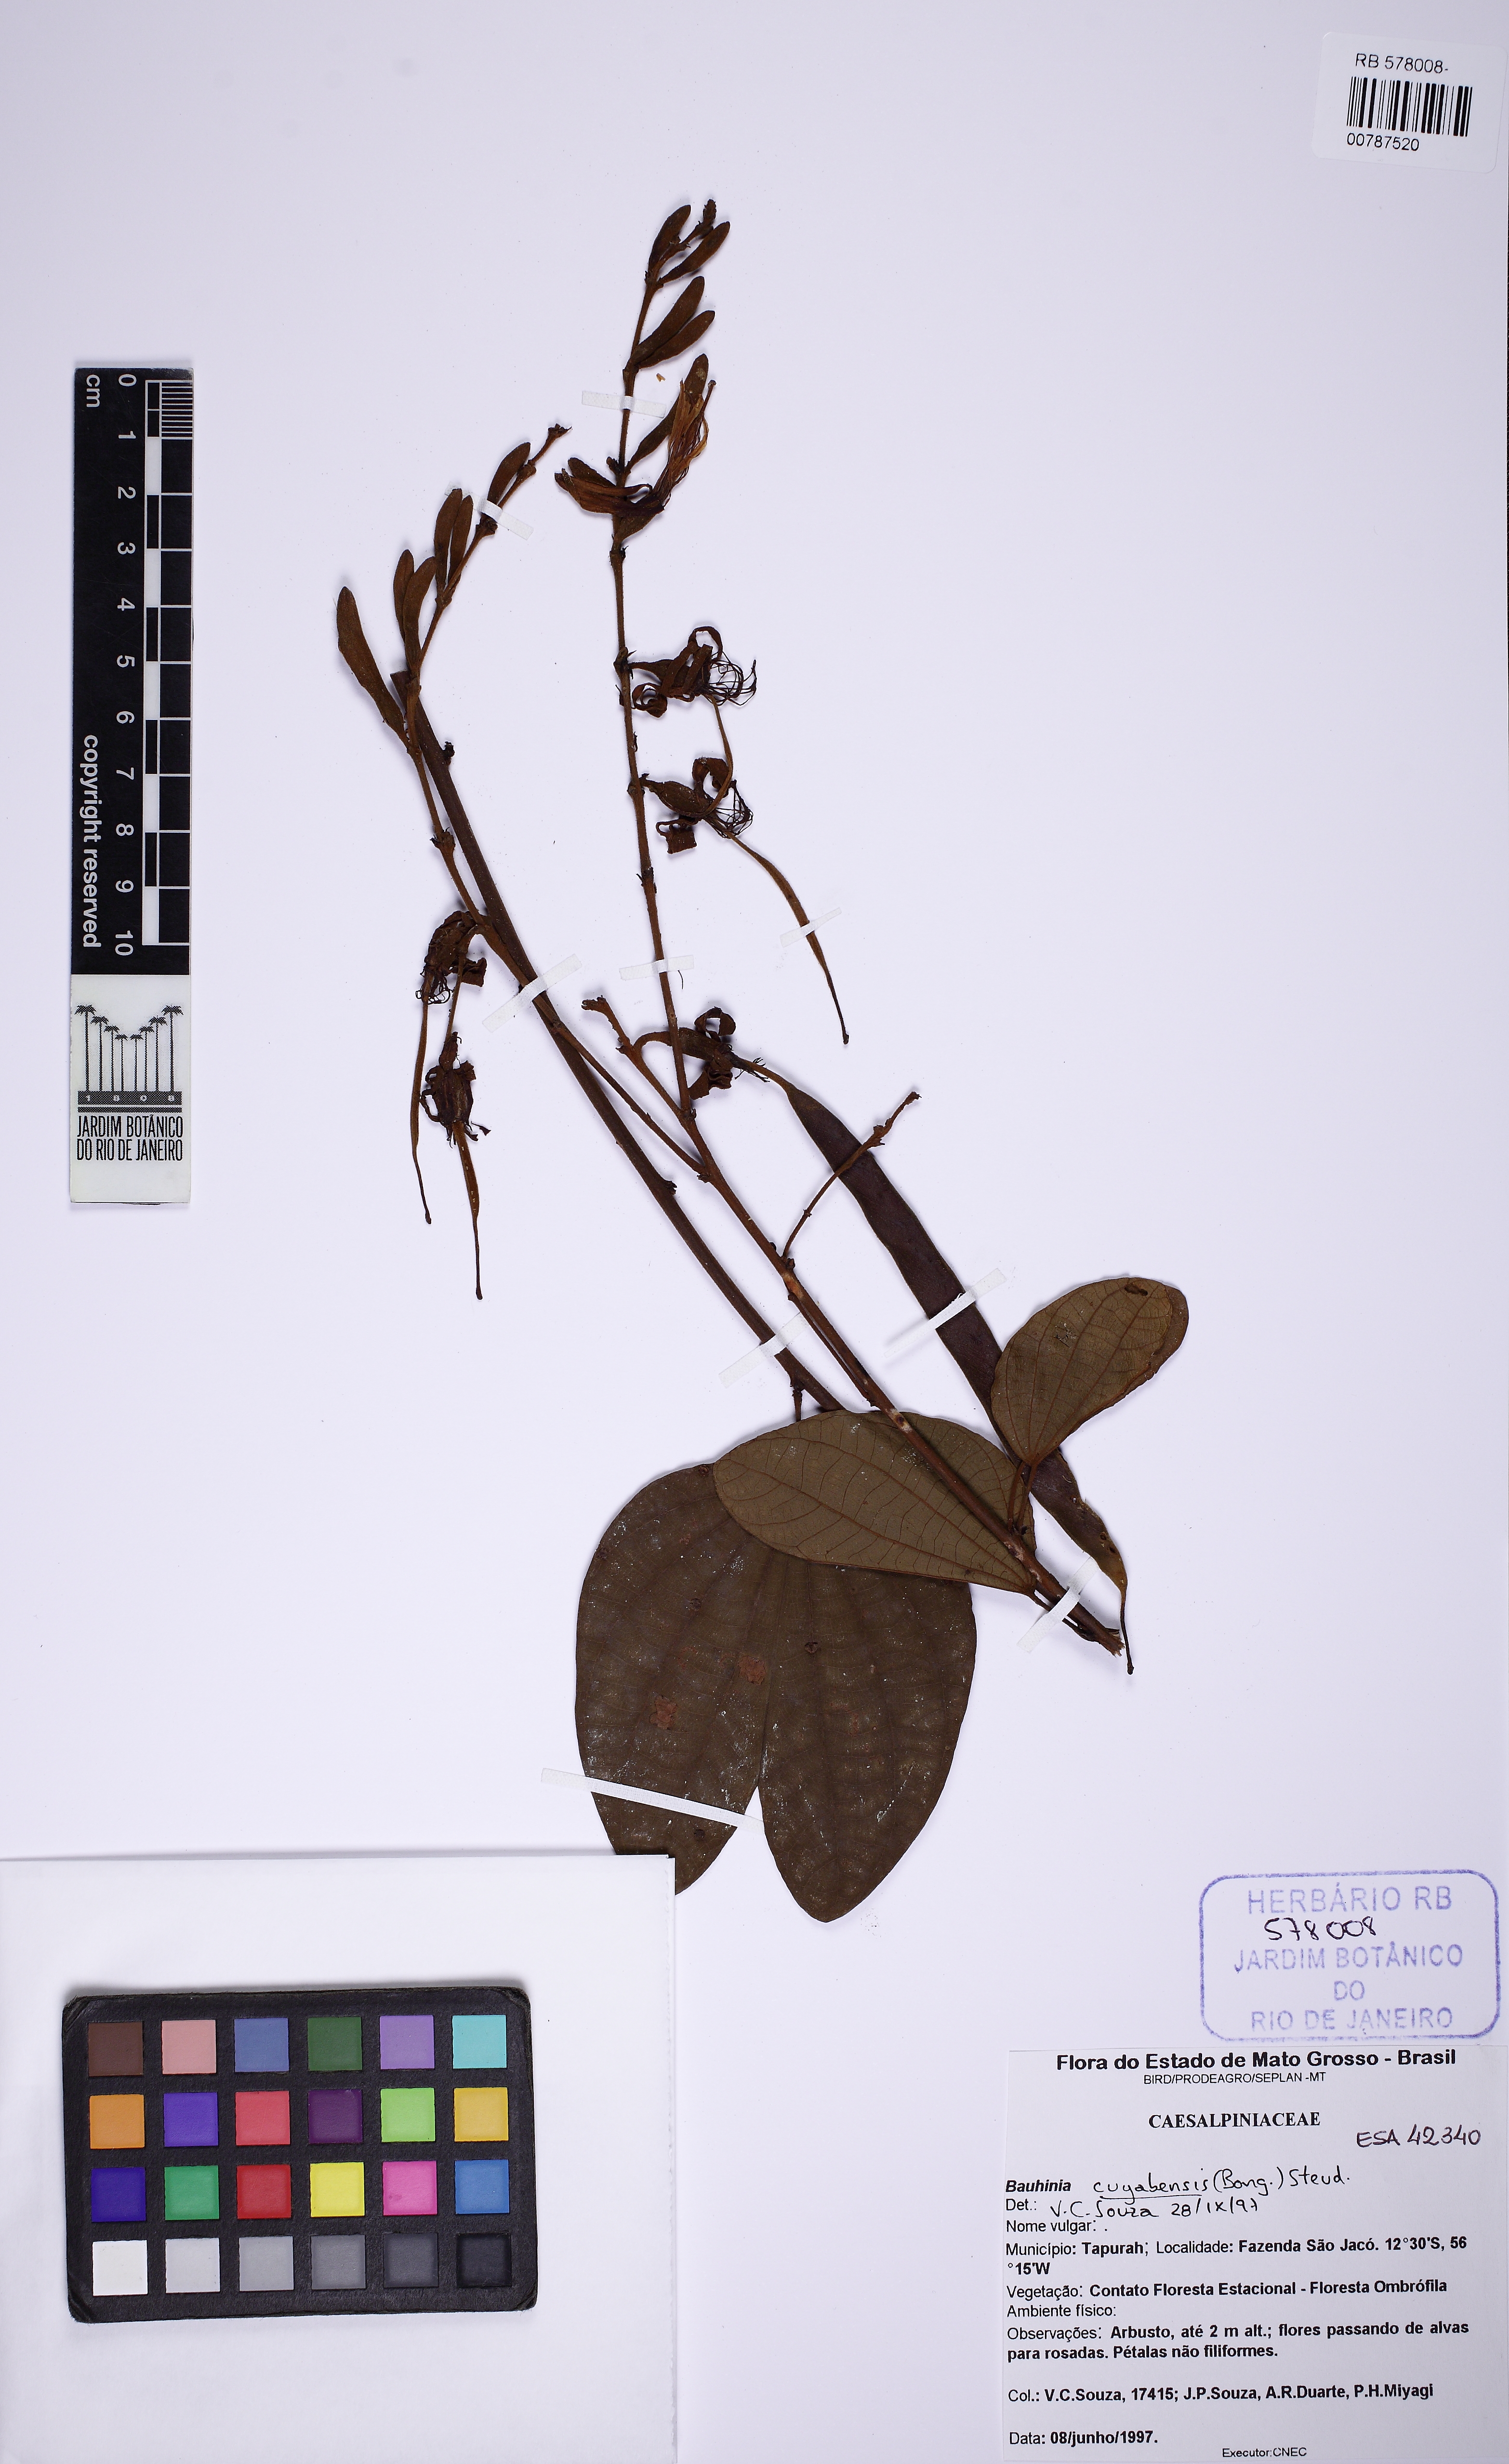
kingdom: Plantae
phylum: Tracheophyta
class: Magnoliopsida
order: Fabales
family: Fabaceae
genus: Bauhinia
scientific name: Bauhinia ungulata
